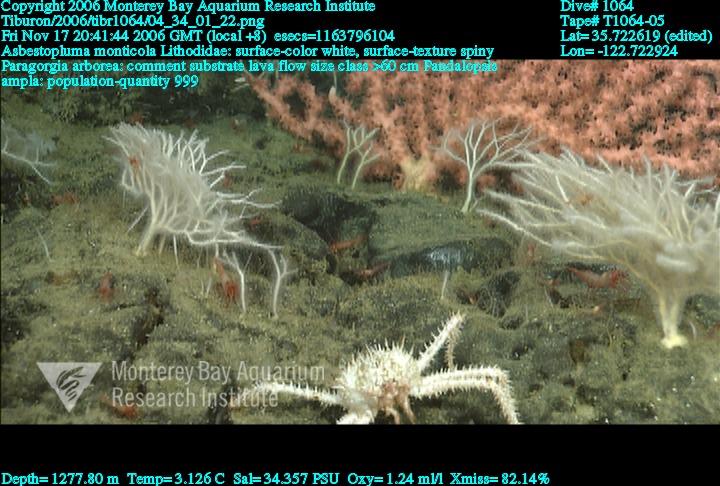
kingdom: Animalia
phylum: Porifera
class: Demospongiae
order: Poecilosclerida
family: Cladorhizidae
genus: Asbestopluma
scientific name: Asbestopluma monticola
